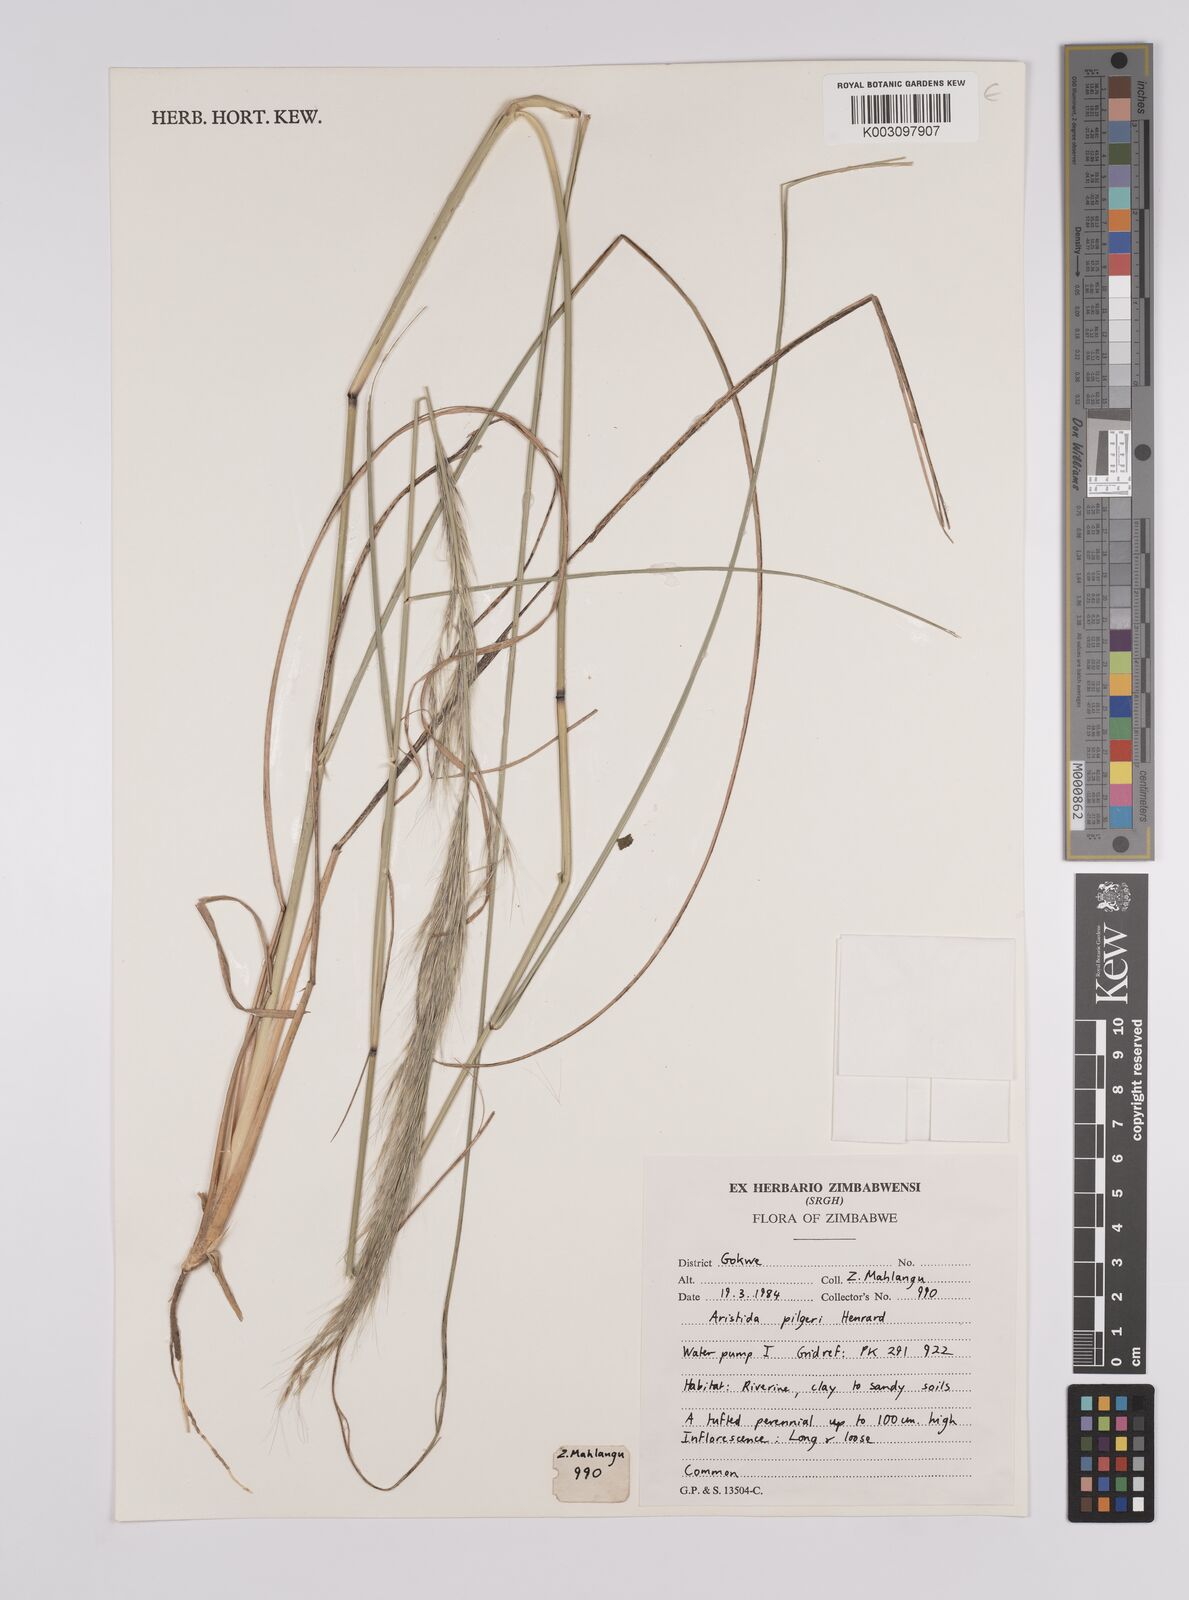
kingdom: Plantae
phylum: Tracheophyta
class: Liliopsida
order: Poales
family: Poaceae
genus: Aristida
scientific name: Aristida pilgeri
